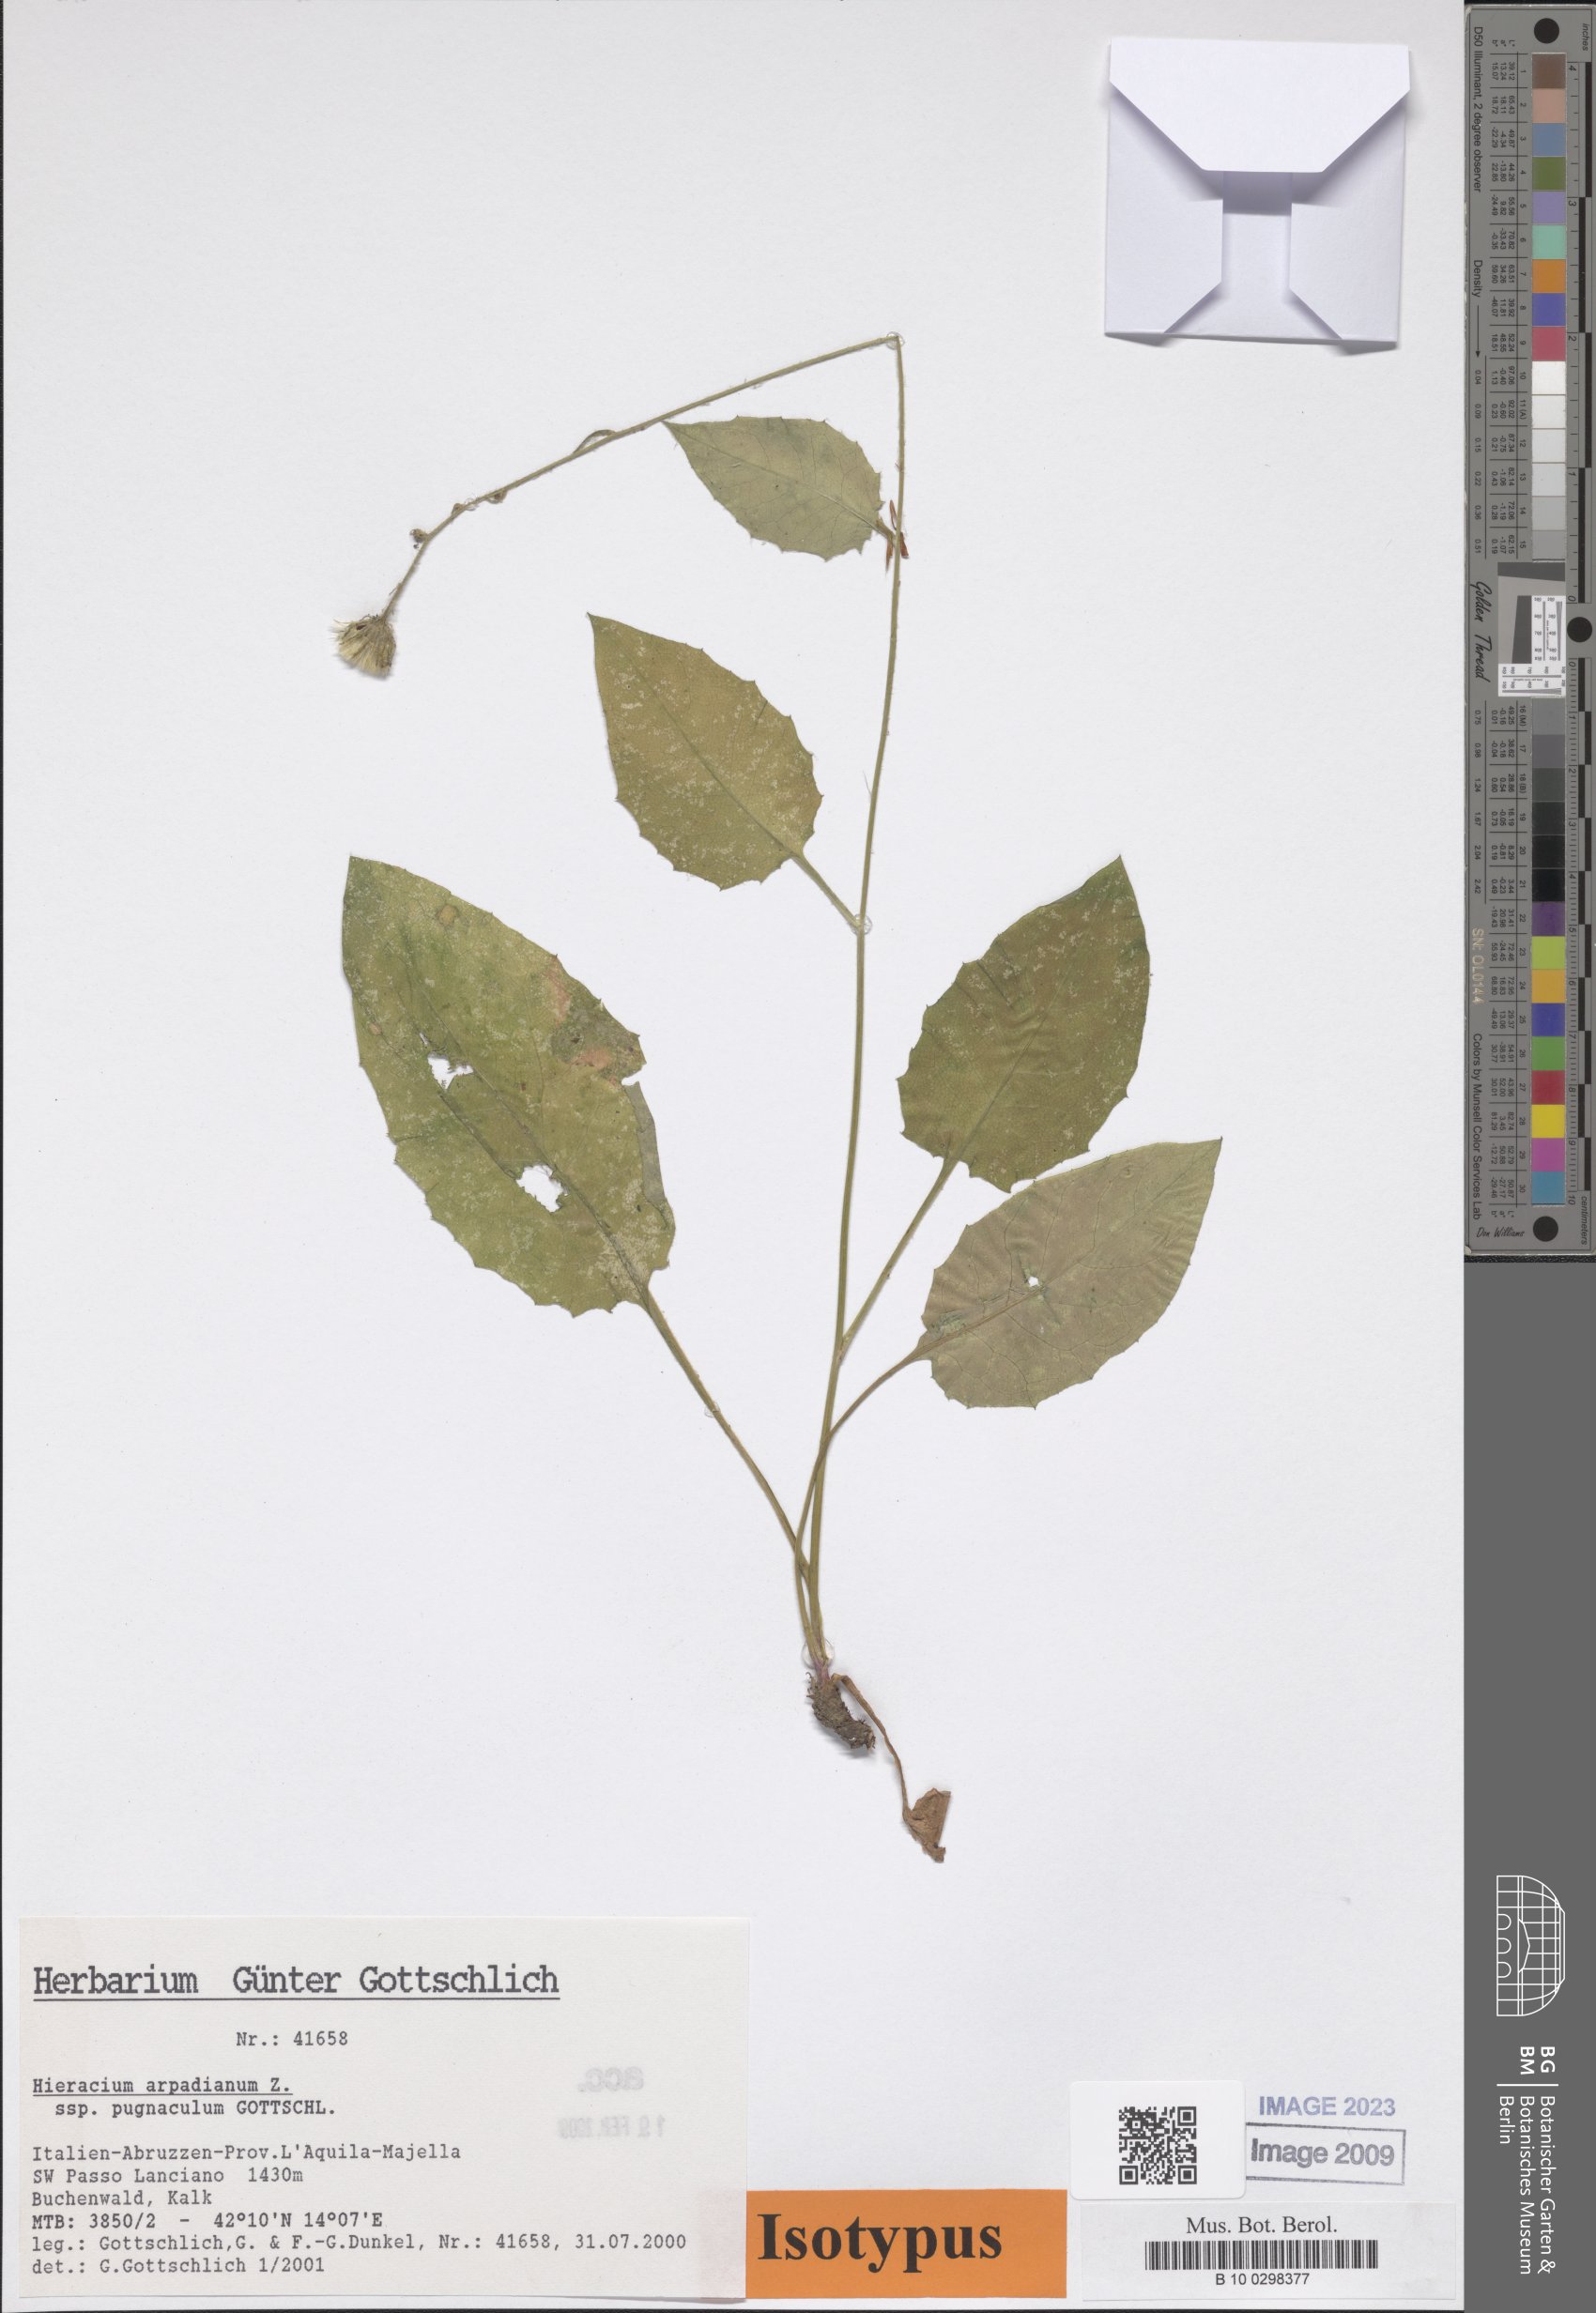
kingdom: Plantae
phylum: Tracheophyta
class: Magnoliopsida
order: Asterales
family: Asteraceae
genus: Hieracium
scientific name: Hieracium arpadianum
